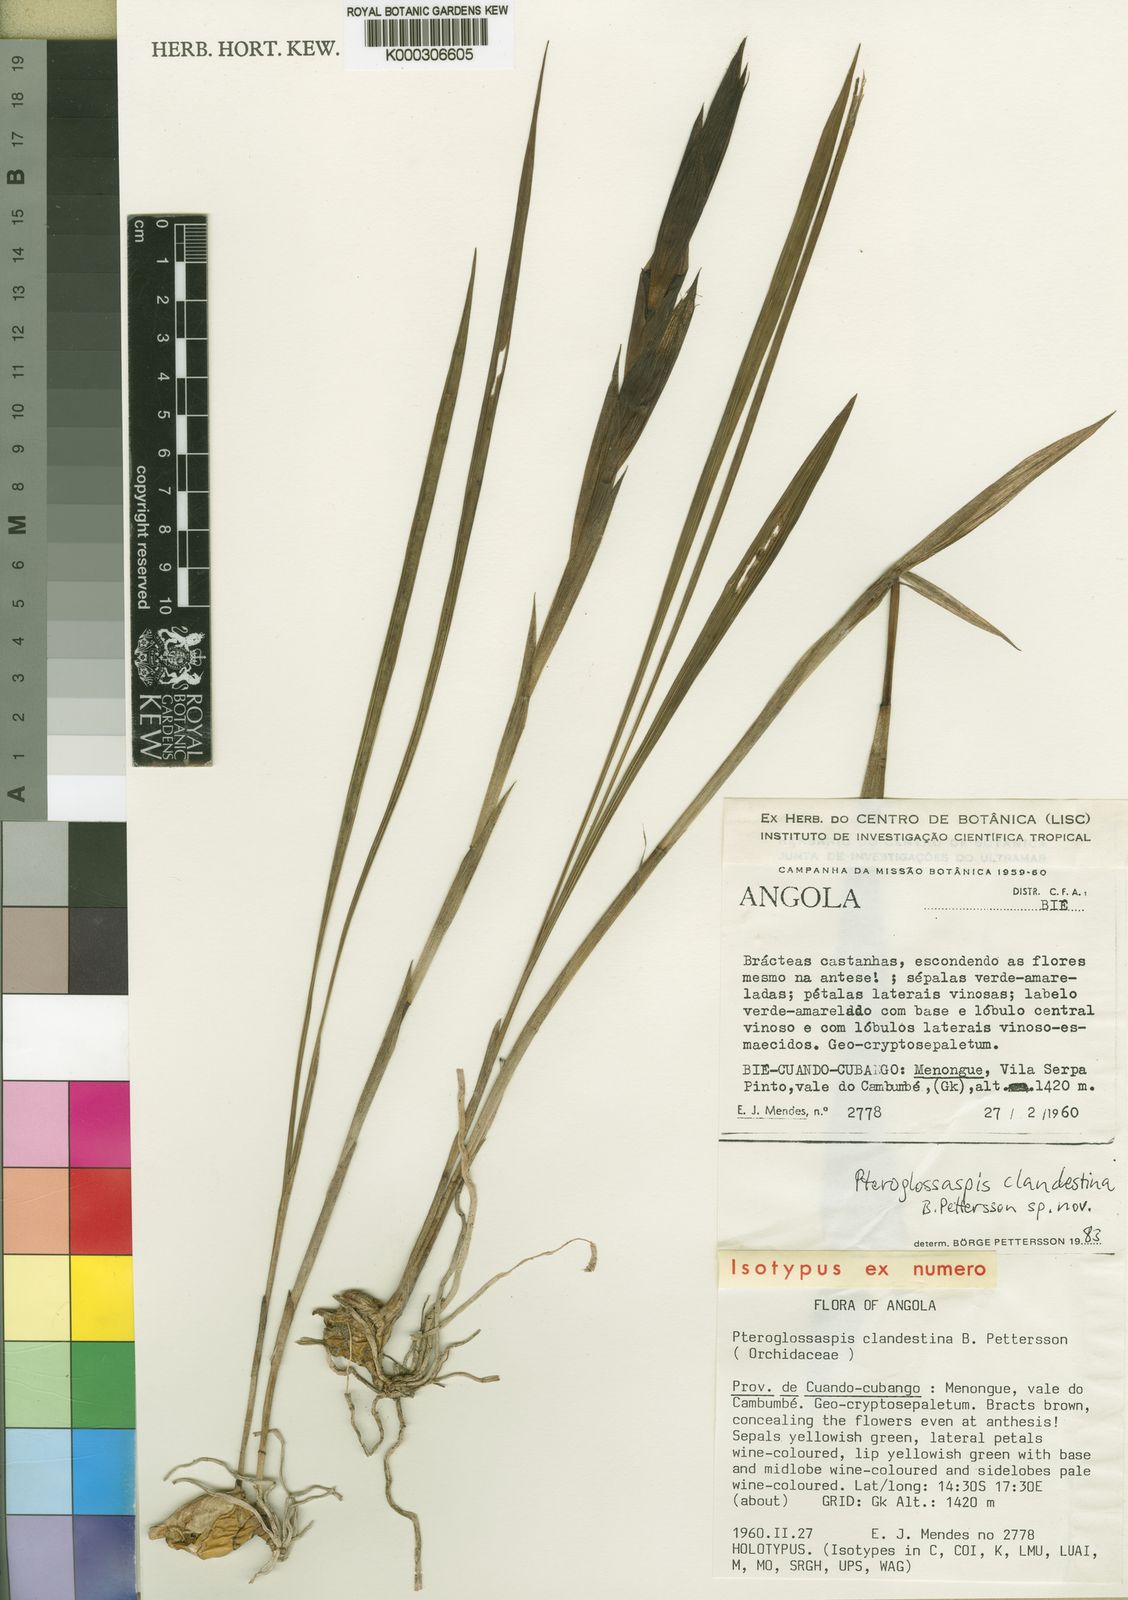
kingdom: Plantae
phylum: Tracheophyta
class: Liliopsida
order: Asparagales
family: Orchidaceae
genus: Eulophia
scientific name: Eulophia clandestina
